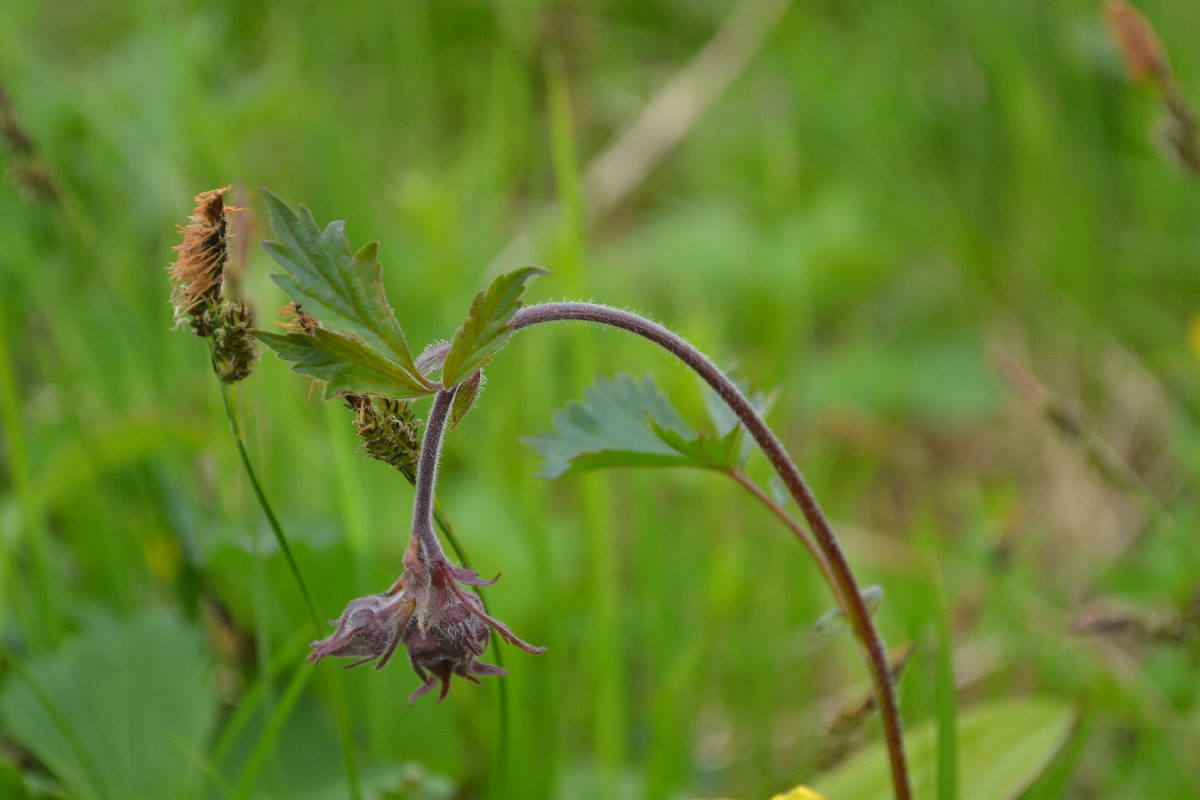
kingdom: Plantae
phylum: Tracheophyta
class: Magnoliopsida
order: Rosales
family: Rosaceae
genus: Comarum
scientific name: Comarum palustre
